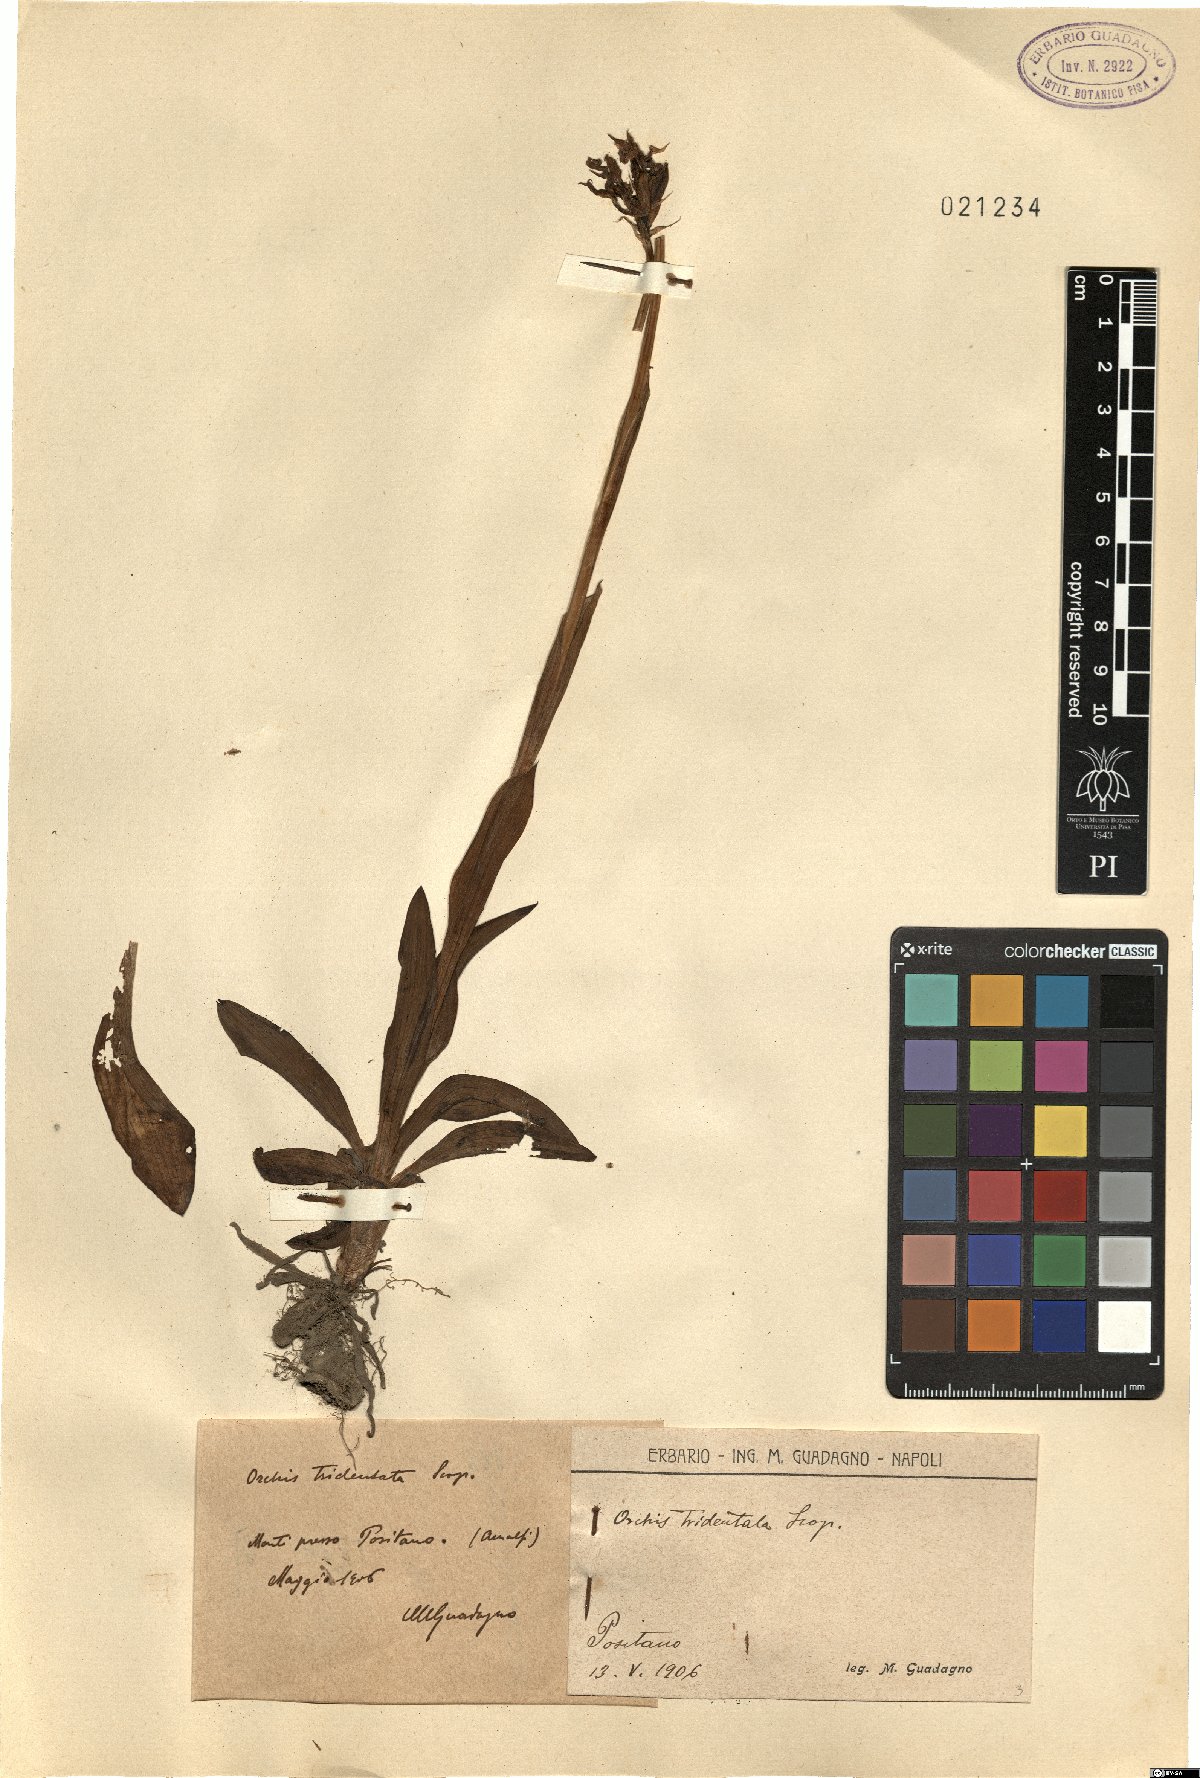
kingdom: Plantae
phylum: Tracheophyta
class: Liliopsida
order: Asparagales
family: Orchidaceae
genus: Neotinea
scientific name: Neotinea tridentata
